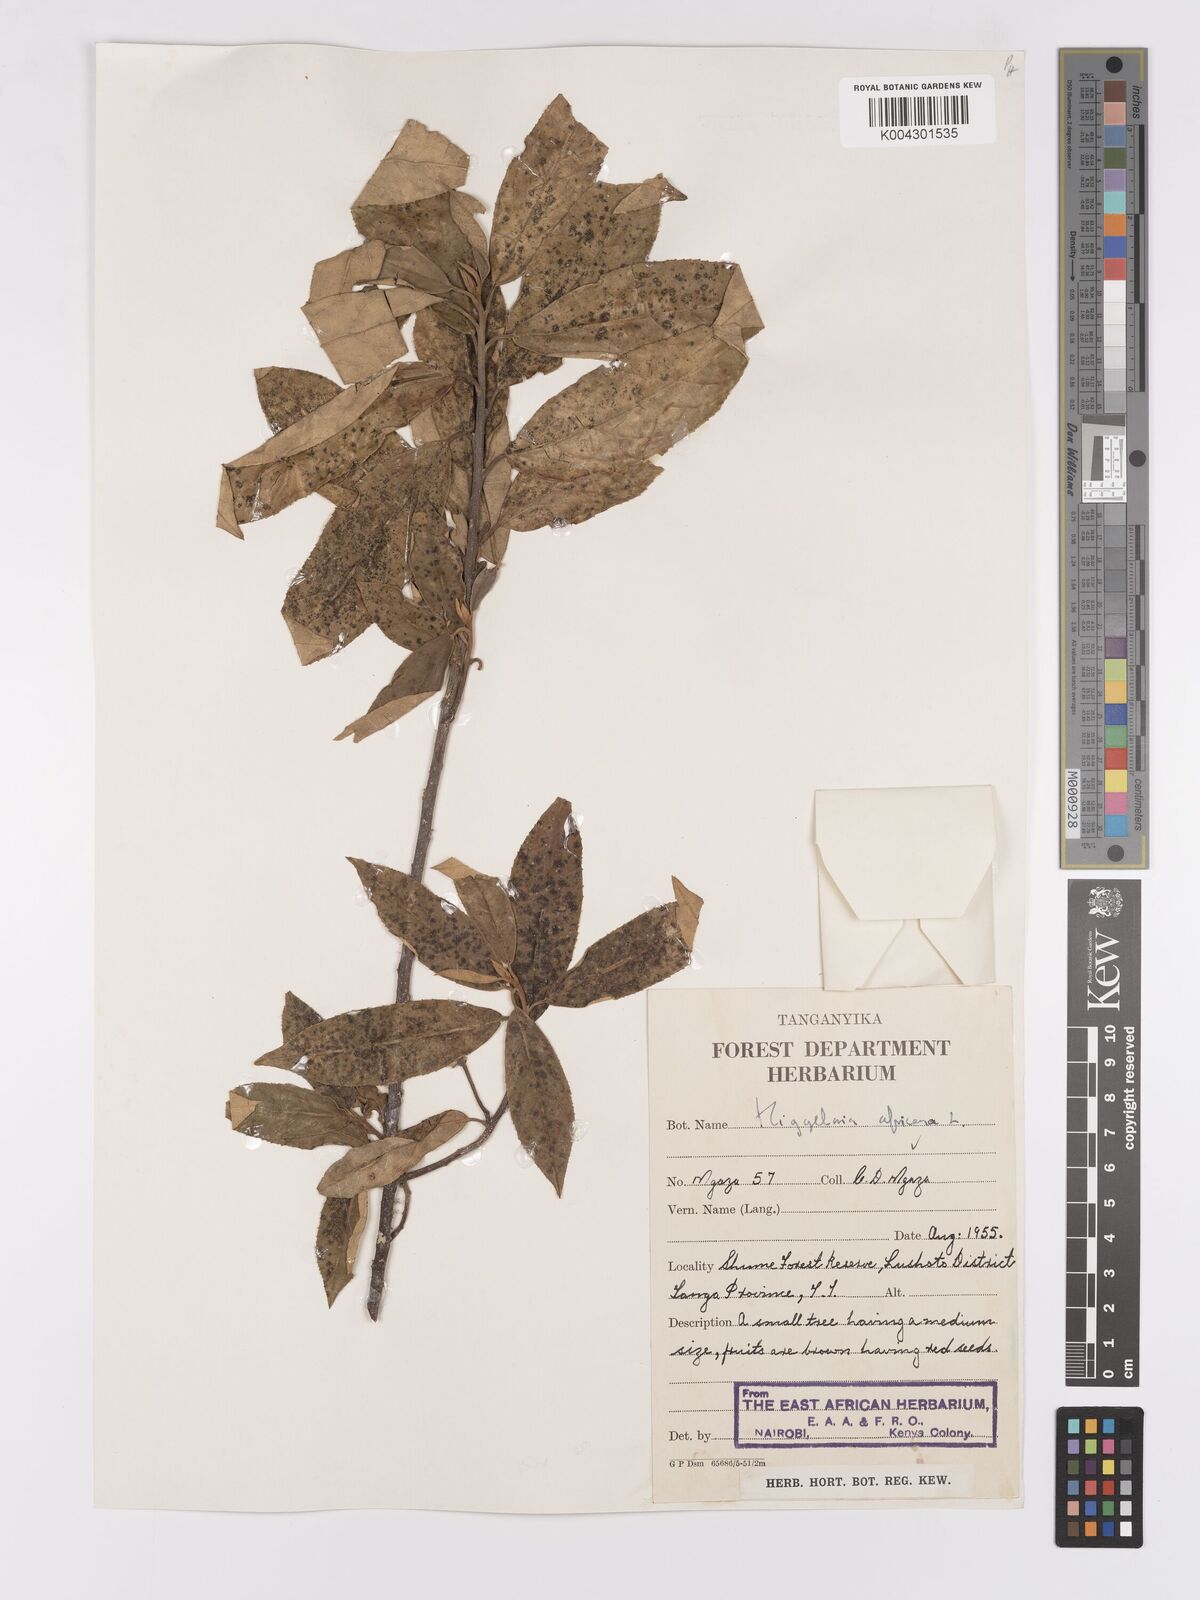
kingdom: Plantae
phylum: Tracheophyta
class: Magnoliopsida
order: Malpighiales
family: Achariaceae
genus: Kiggelaria
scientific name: Kiggelaria africana
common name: Wild peach
